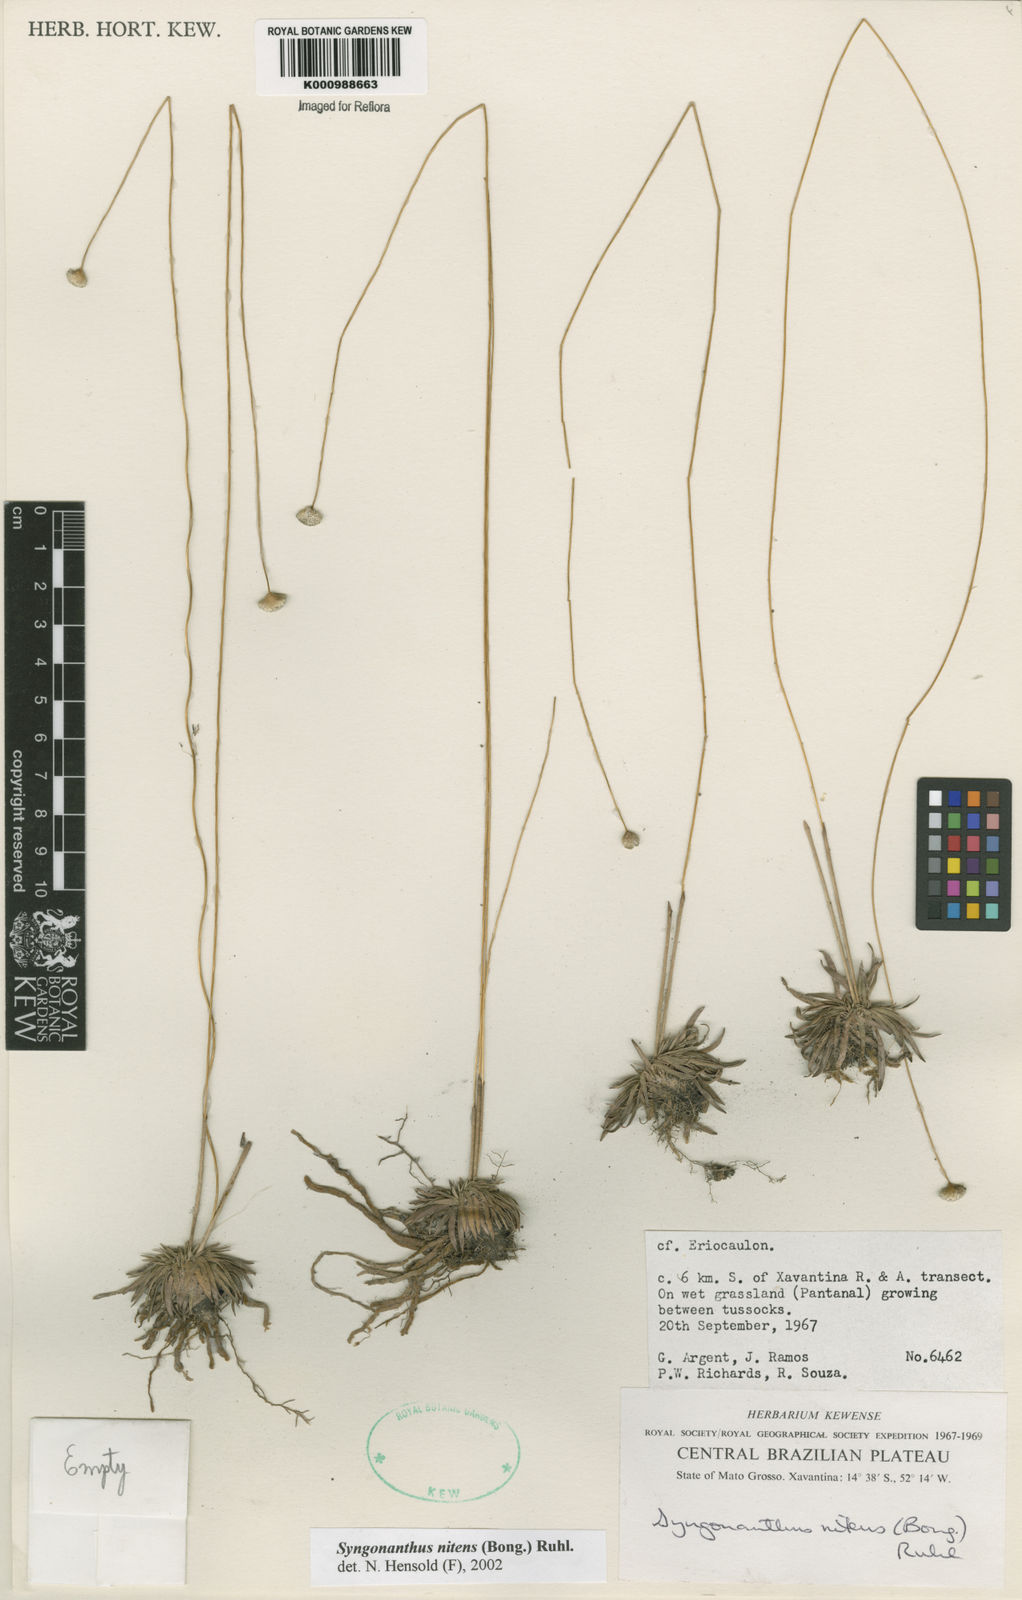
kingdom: Plantae
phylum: Tracheophyta
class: Liliopsida
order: Poales
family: Eriocaulaceae
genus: Syngonanthus
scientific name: Syngonanthus nitens
